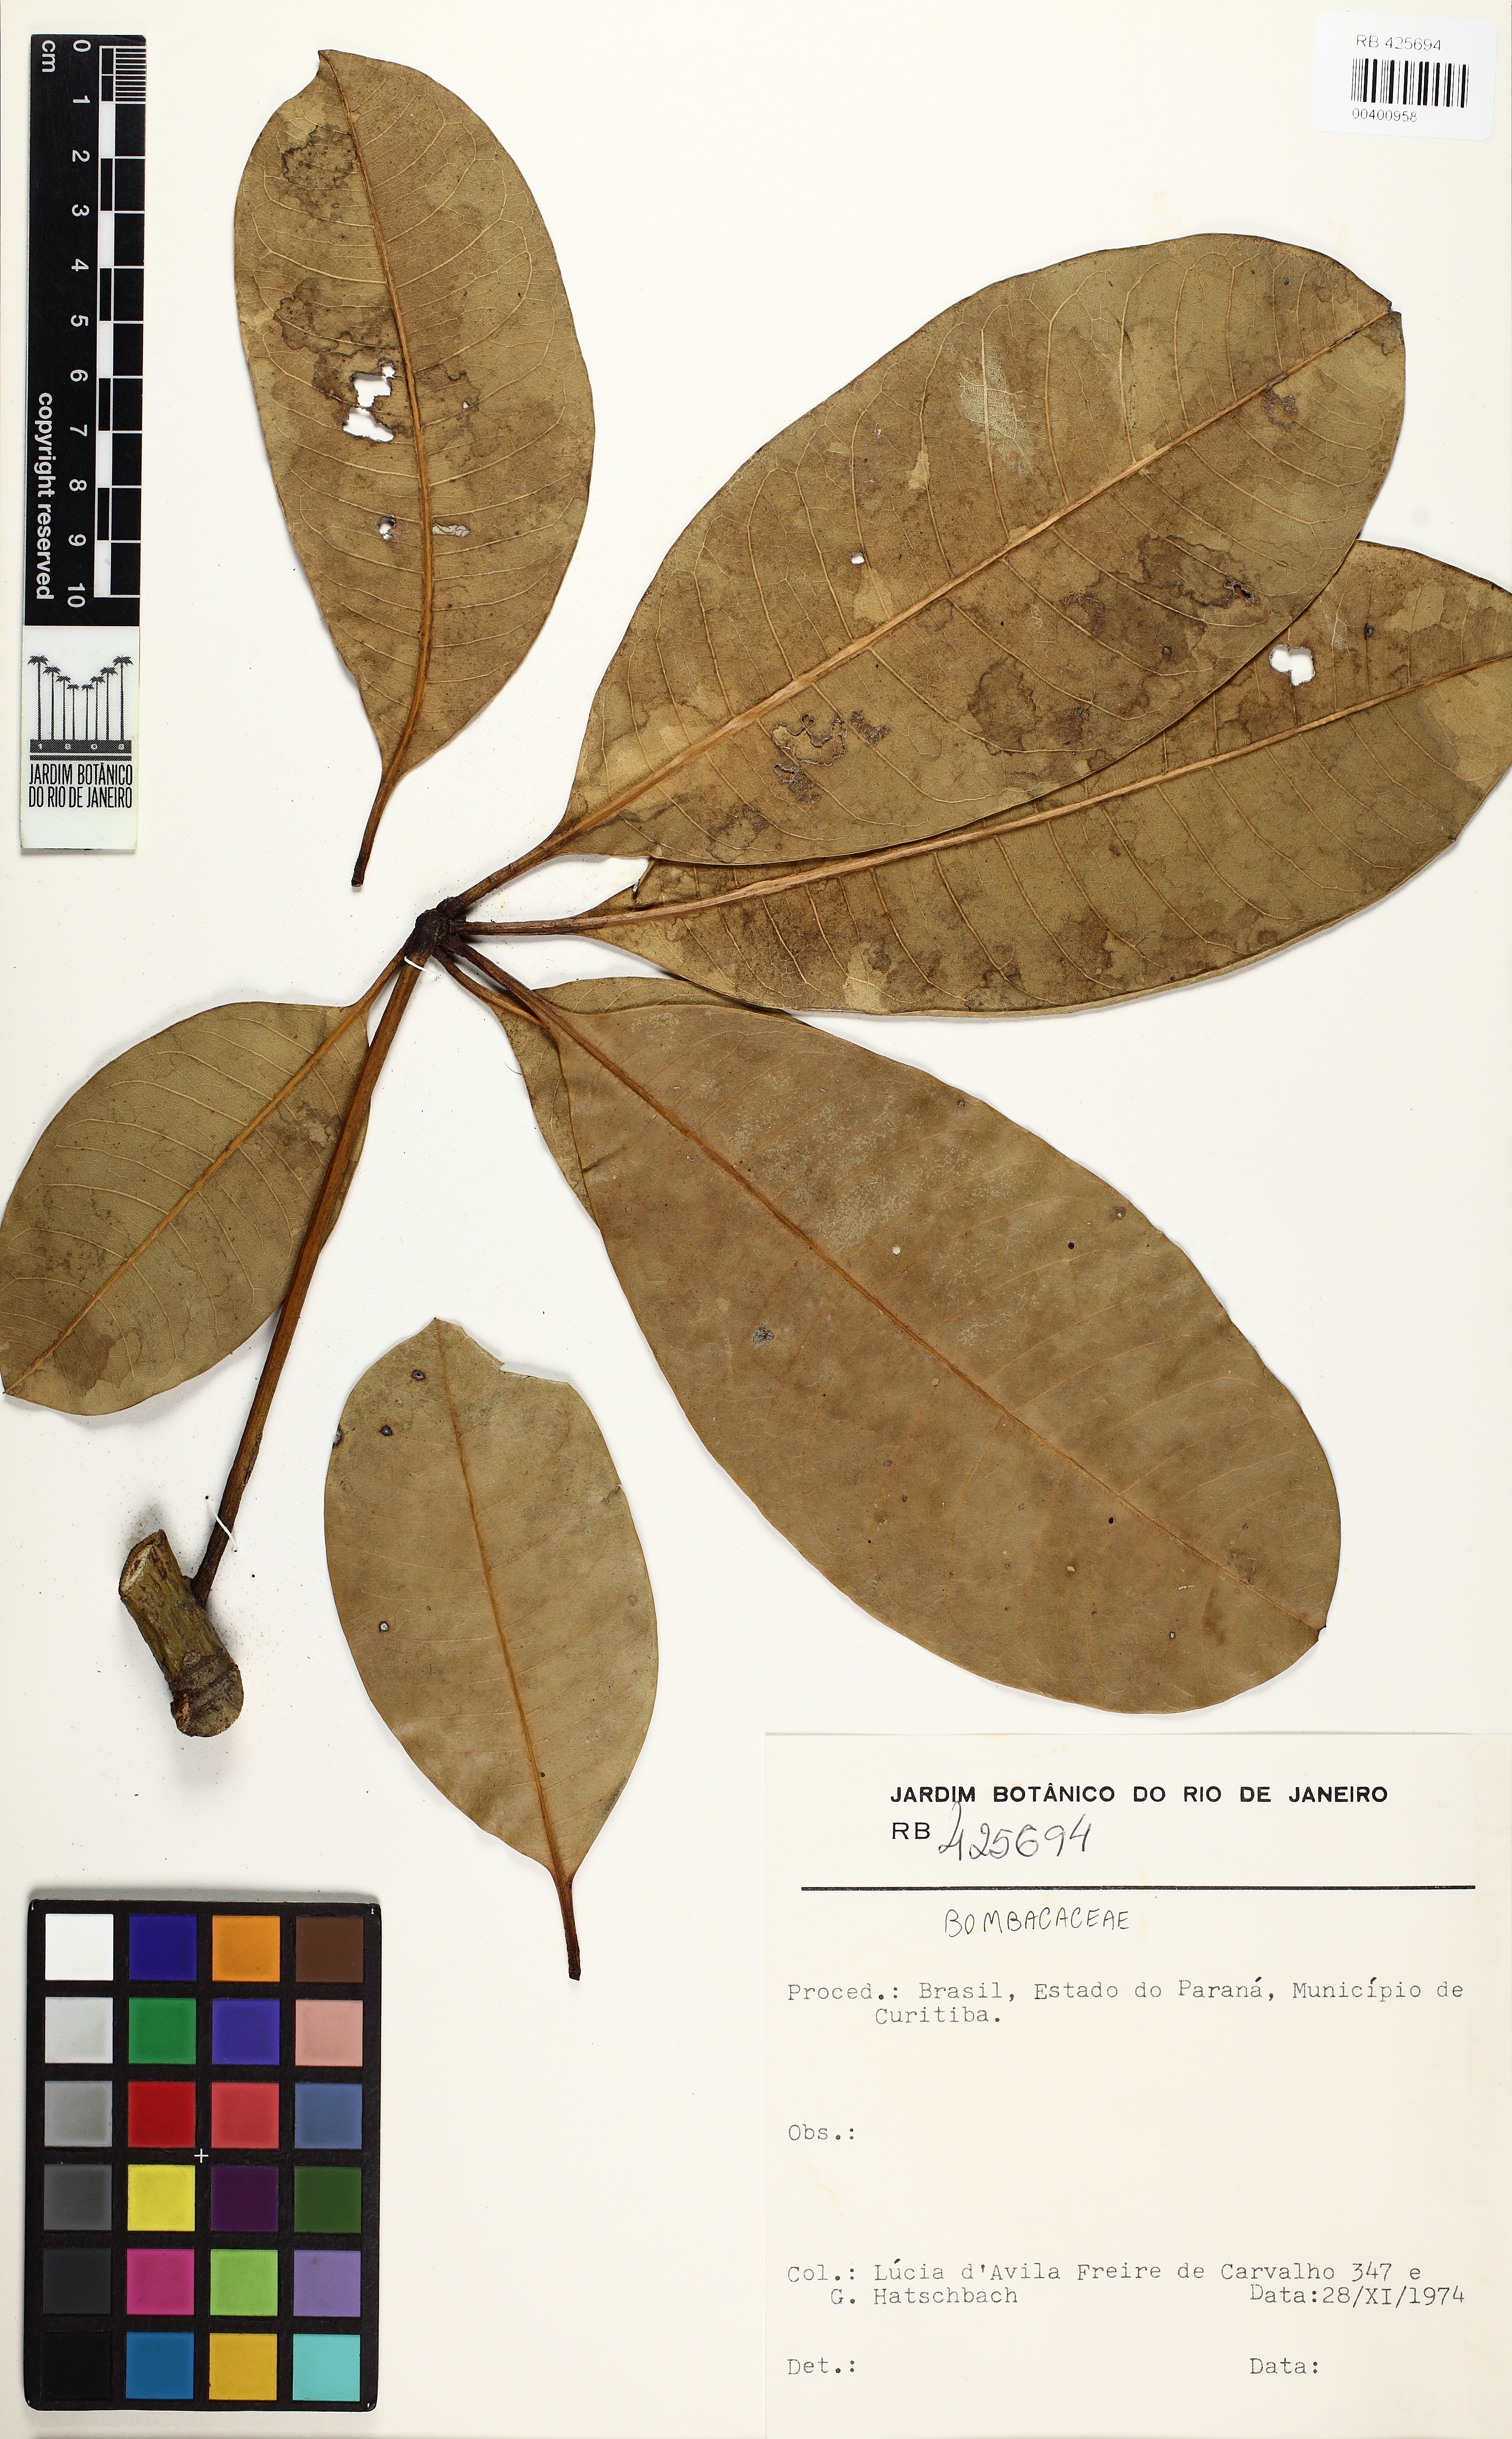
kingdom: Plantae
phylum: Tracheophyta
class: Magnoliopsida
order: Malvales
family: Malvaceae
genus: Pachira
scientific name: Pachira
